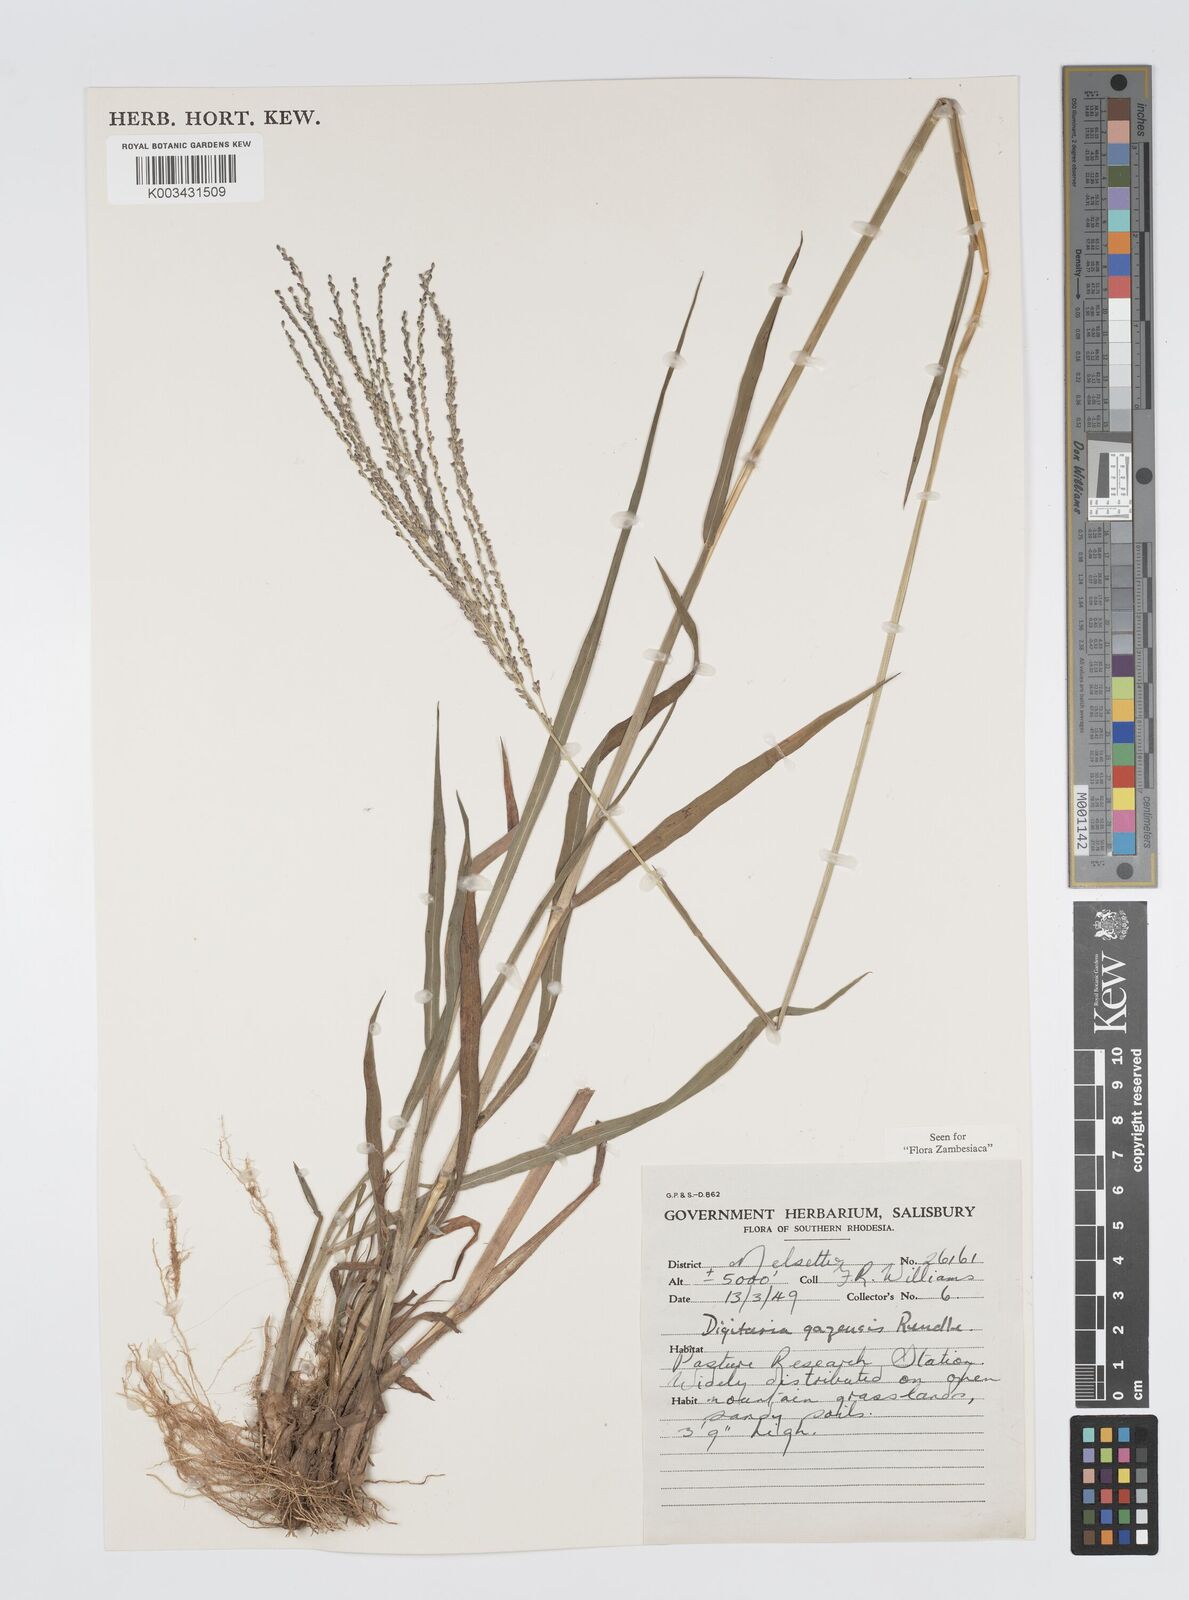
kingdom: Plantae
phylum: Tracheophyta
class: Liliopsida
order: Poales
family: Poaceae
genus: Digitaria
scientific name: Digitaria gazensis
